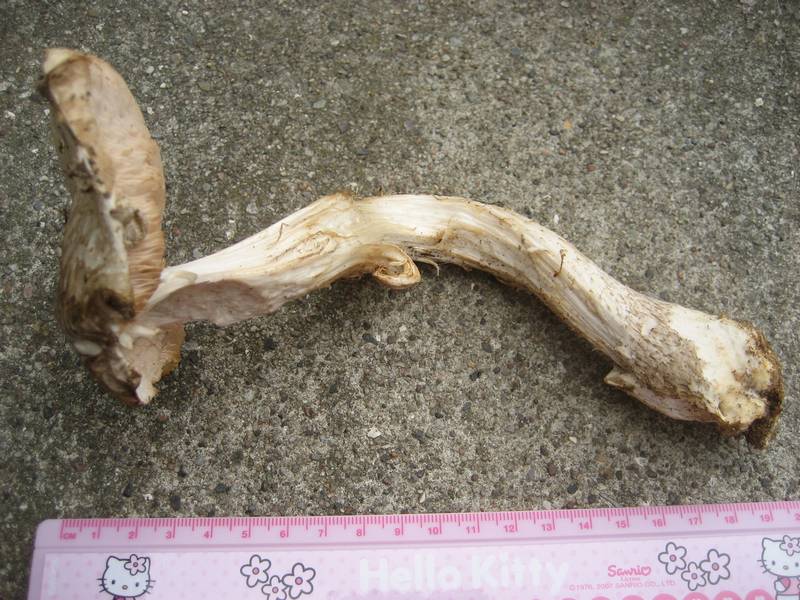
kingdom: Fungi
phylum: Basidiomycota
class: Agaricomycetes
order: Agaricales
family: Pluteaceae
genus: Pluteus
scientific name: Pluteus petasatus
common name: savsmulds-skærmhat
